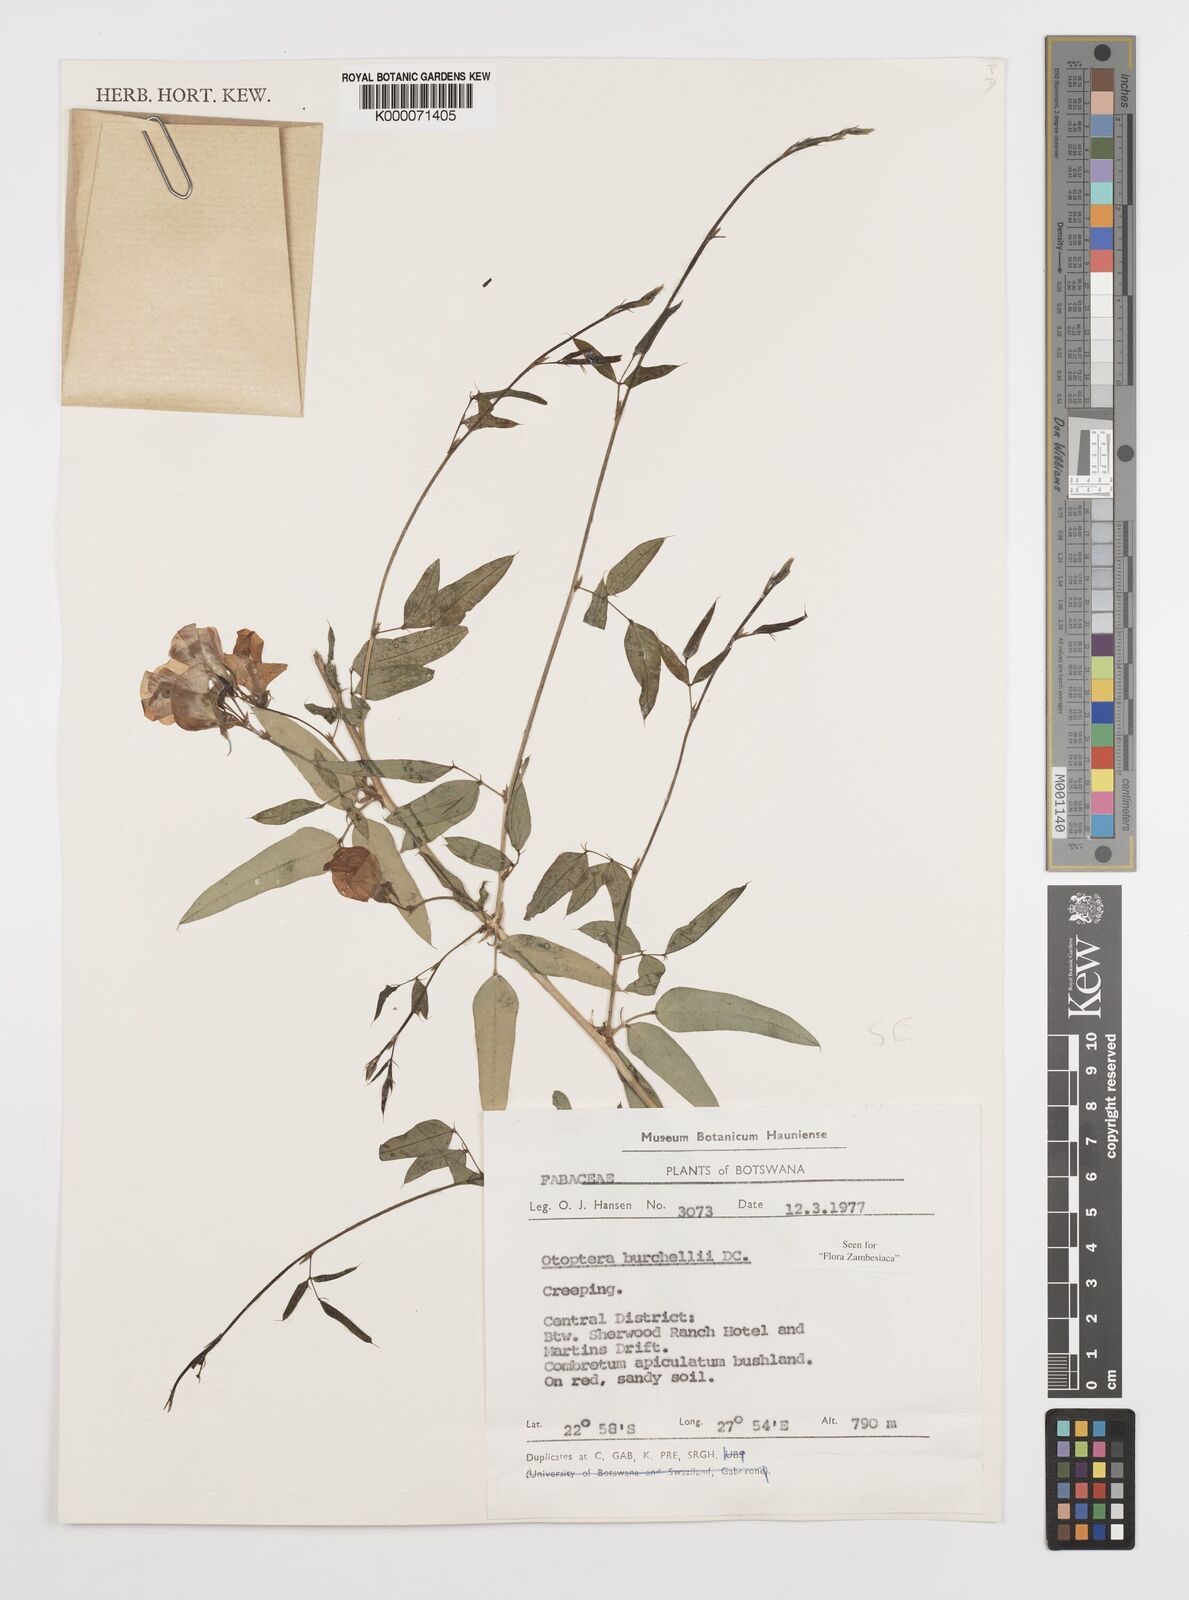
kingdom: Plantae
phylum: Tracheophyta
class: Magnoliopsida
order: Fabales
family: Fabaceae
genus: Otoptera
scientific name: Otoptera burchellii
